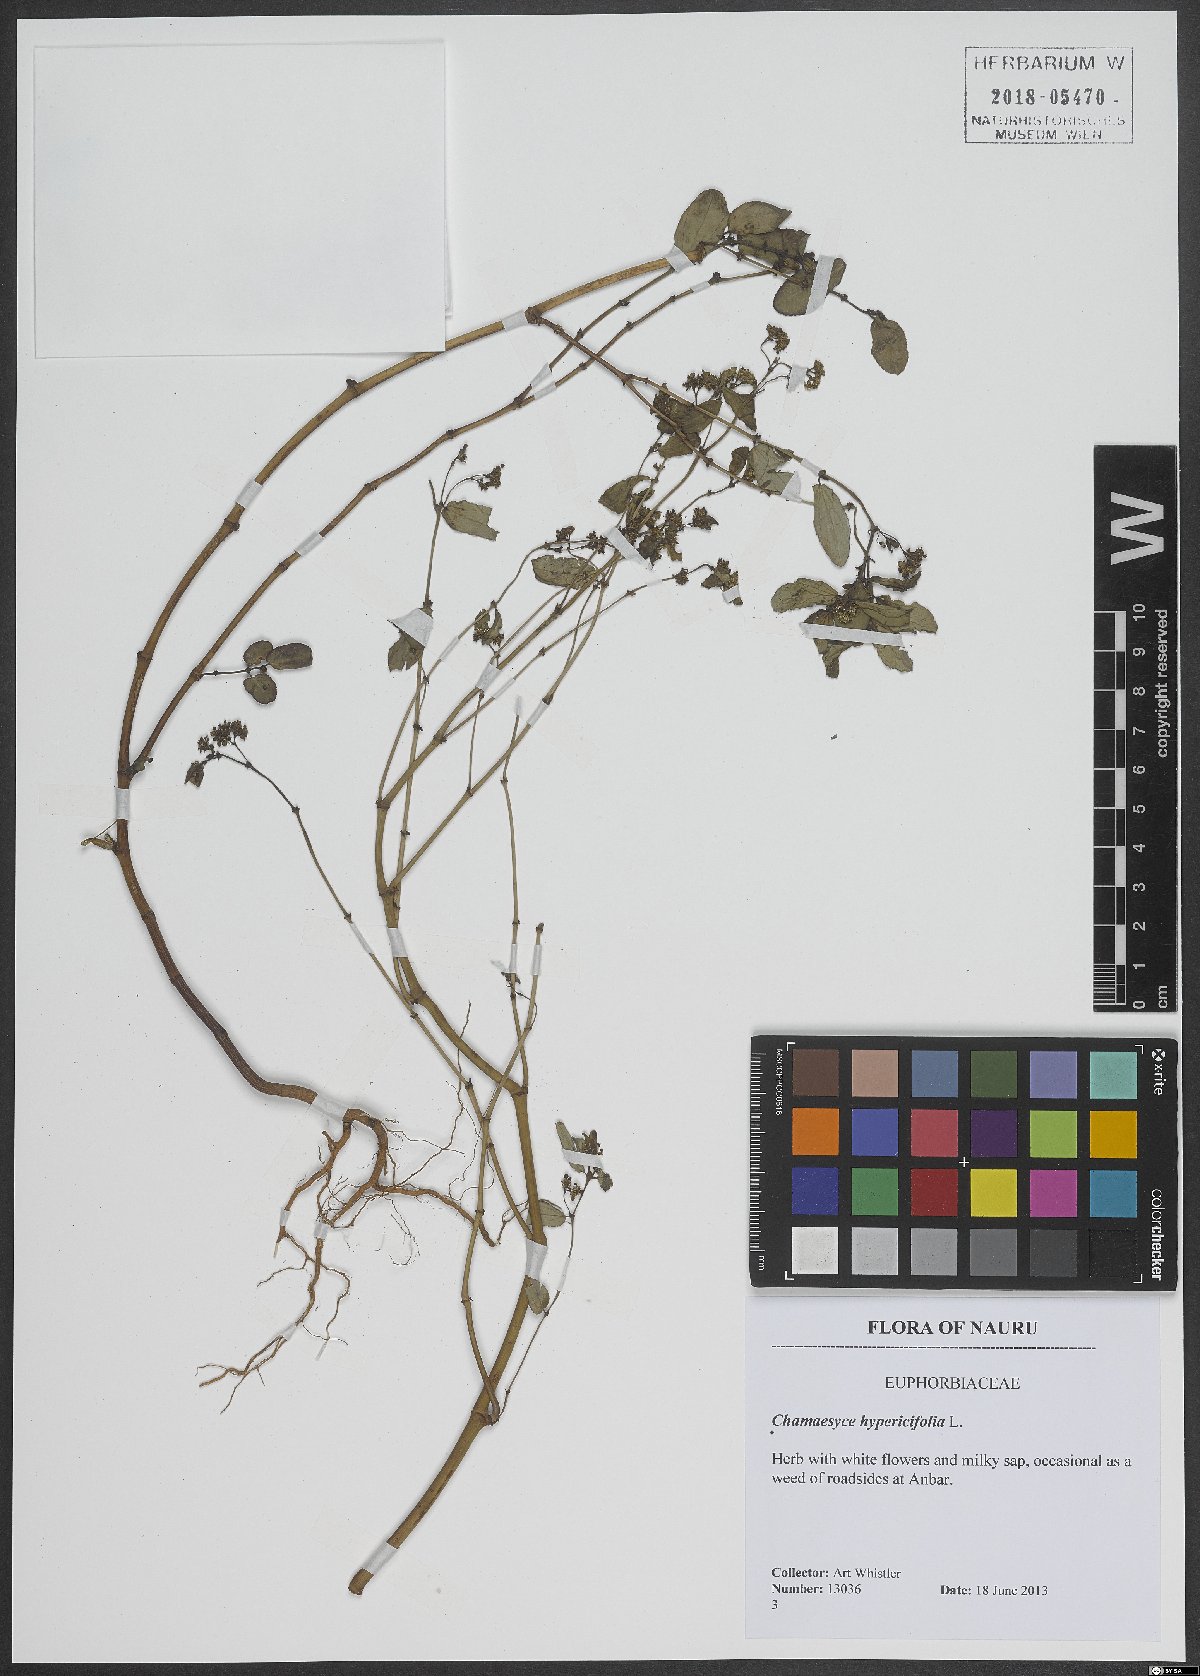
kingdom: Plantae
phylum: Tracheophyta
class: Magnoliopsida
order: Malpighiales
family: Euphorbiaceae
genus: Euphorbia
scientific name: Euphorbia hypericifolia
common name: Graceful sandmat
